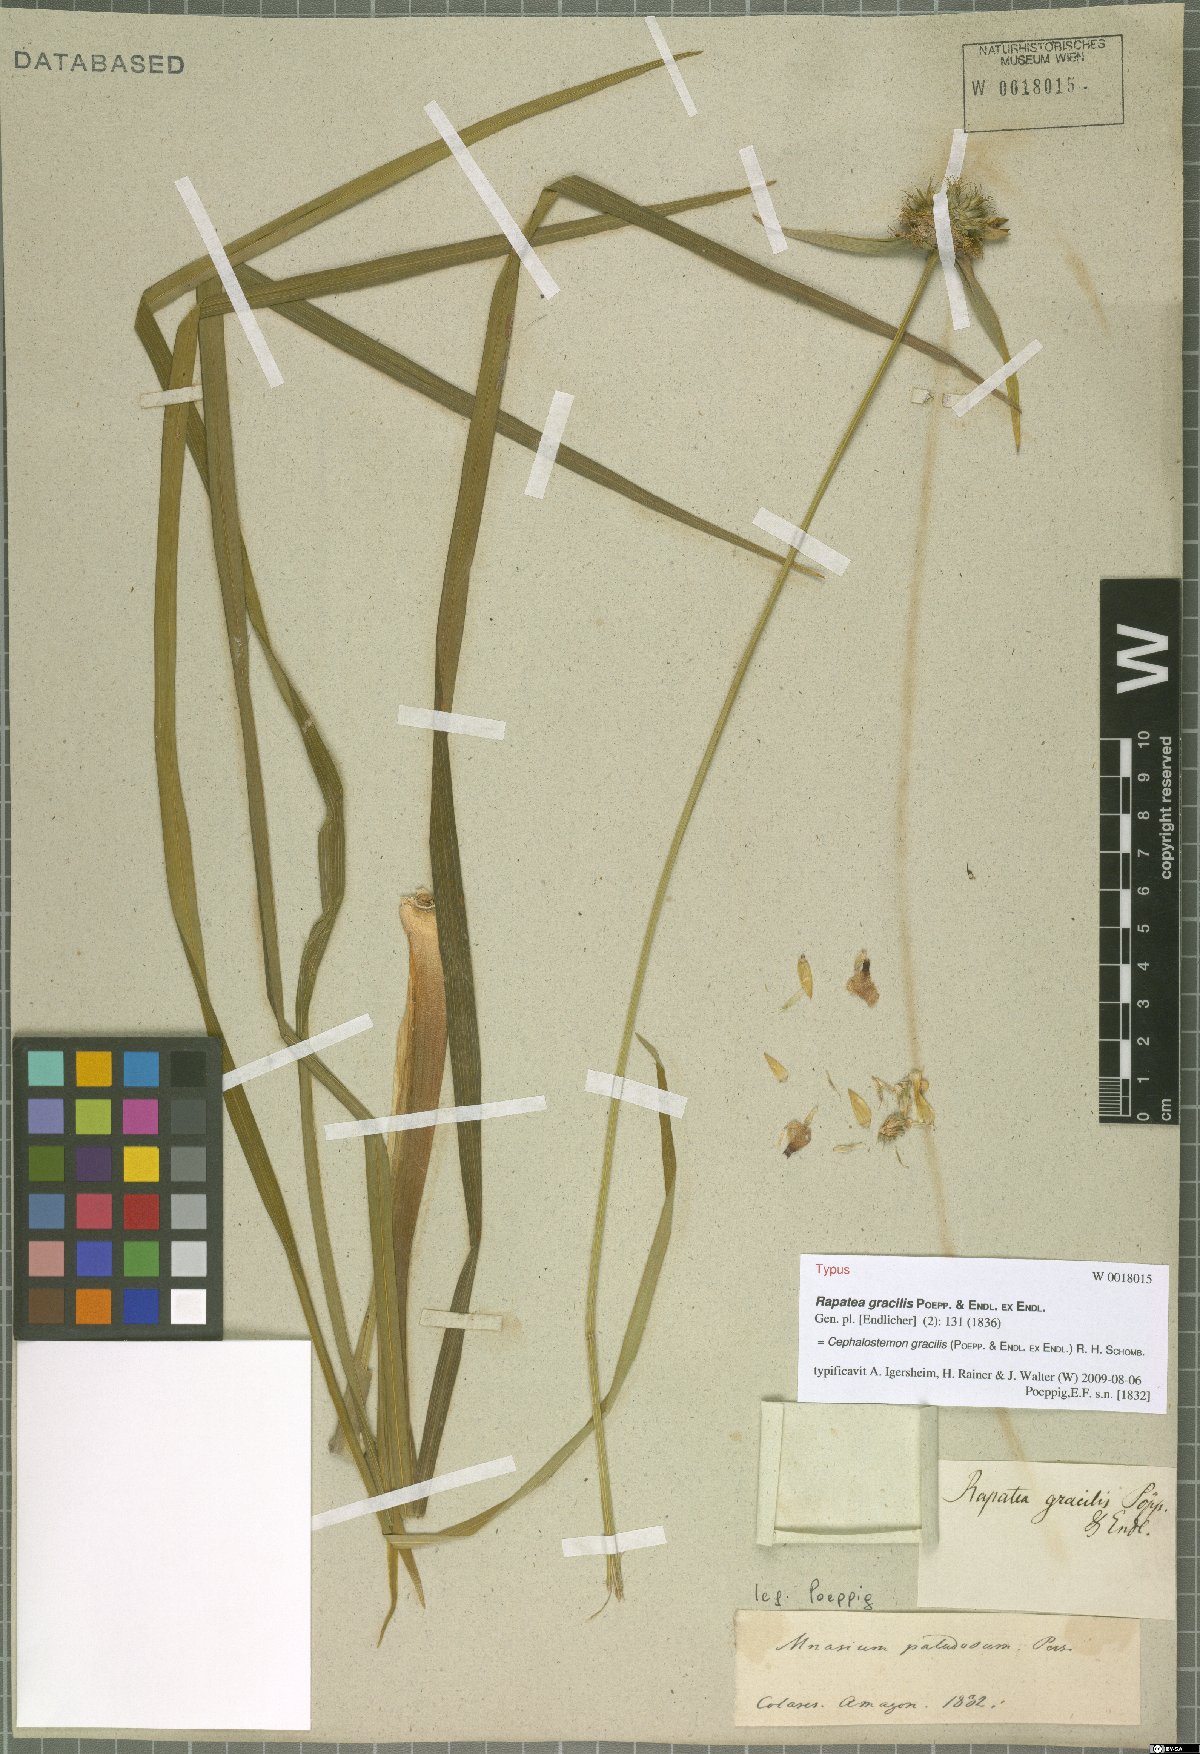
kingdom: Plantae
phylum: Tracheophyta
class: Liliopsida
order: Poales
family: Rapateaceae
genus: Cephalostemon
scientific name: Cephalostemon gracilis
